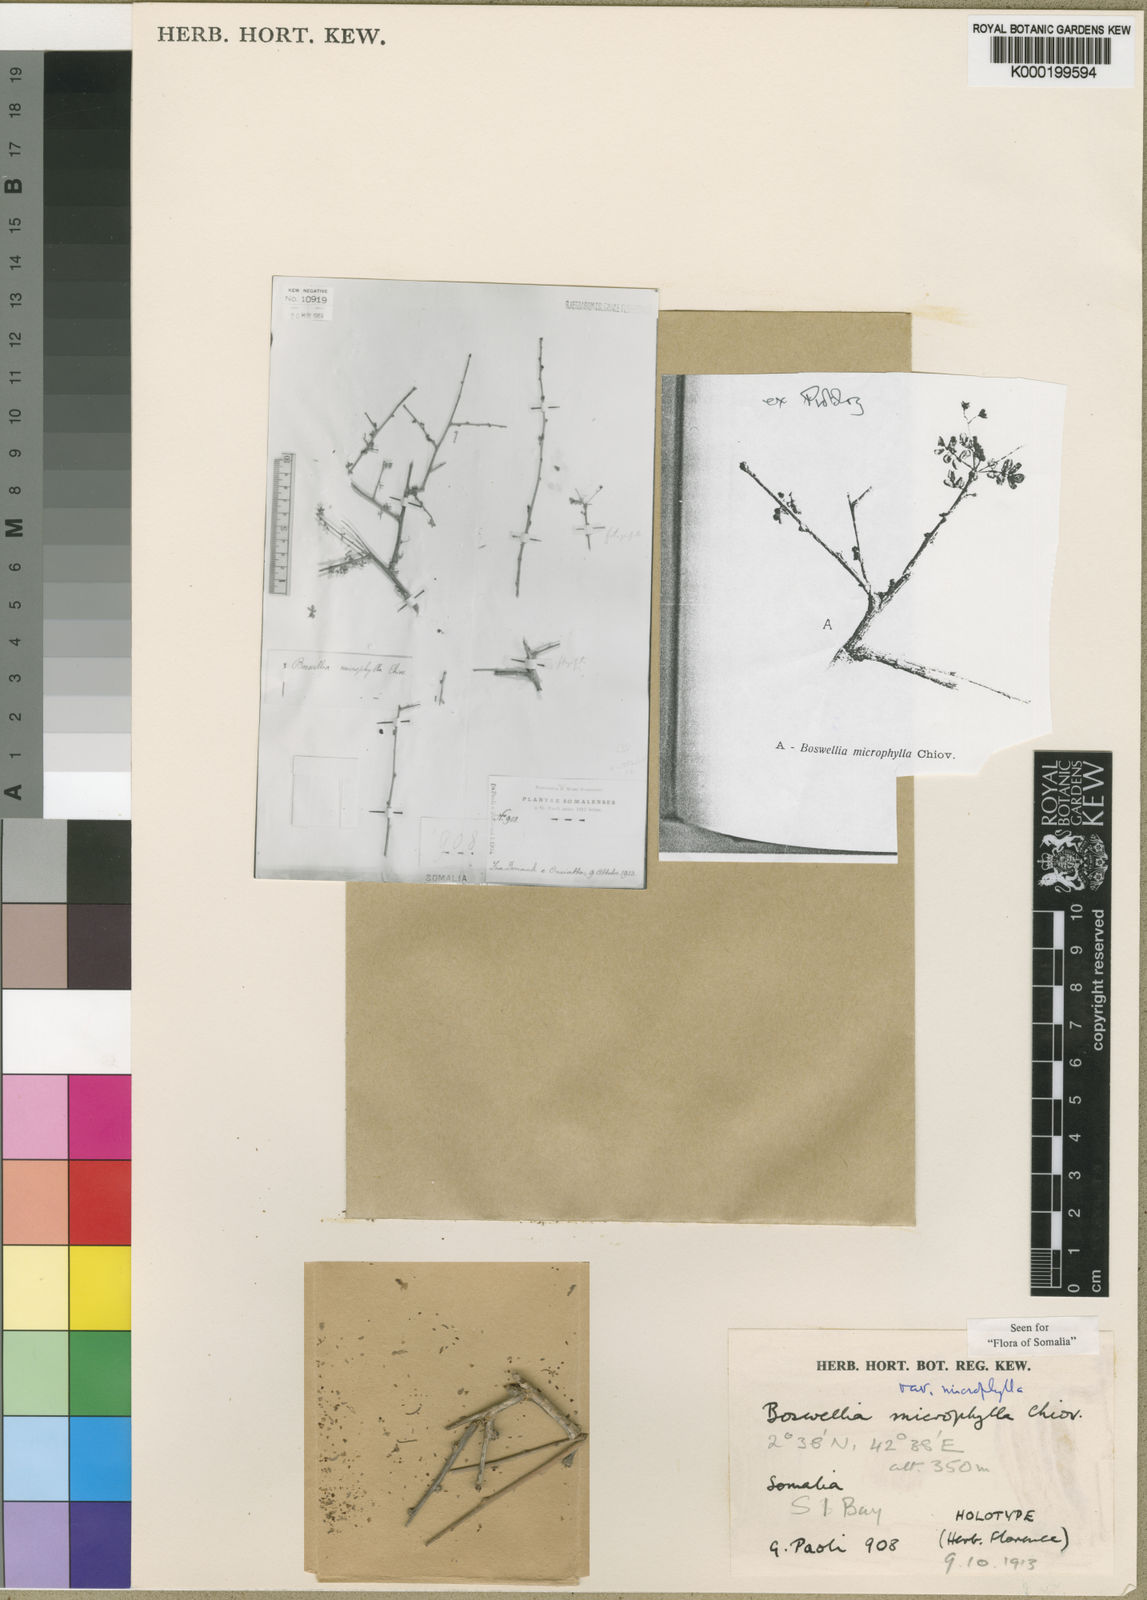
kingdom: Plantae
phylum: Tracheophyta
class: Magnoliopsida
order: Sapindales
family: Burseraceae
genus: Boswellia
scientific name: Boswellia
